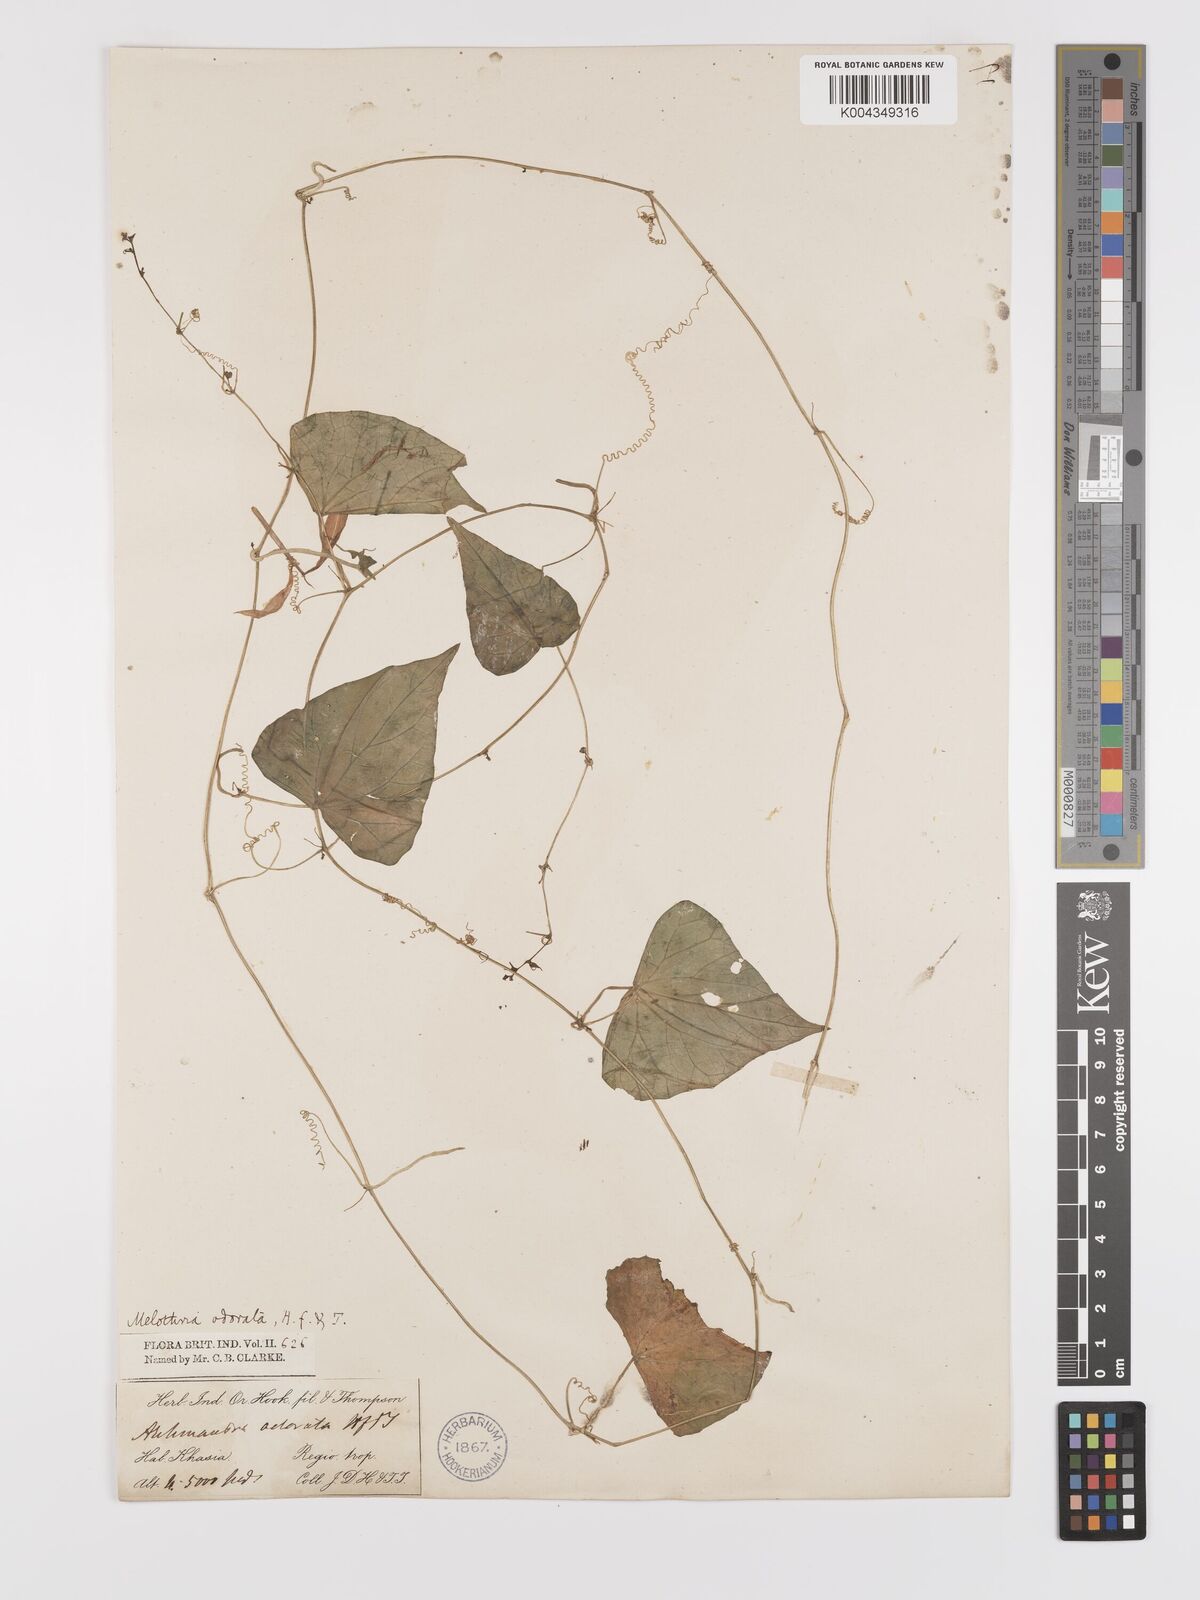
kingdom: Plantae
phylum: Tracheophyta
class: Magnoliopsida
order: Cucurbitales
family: Cucurbitaceae
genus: Zehneria
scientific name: Zehneria odorata
